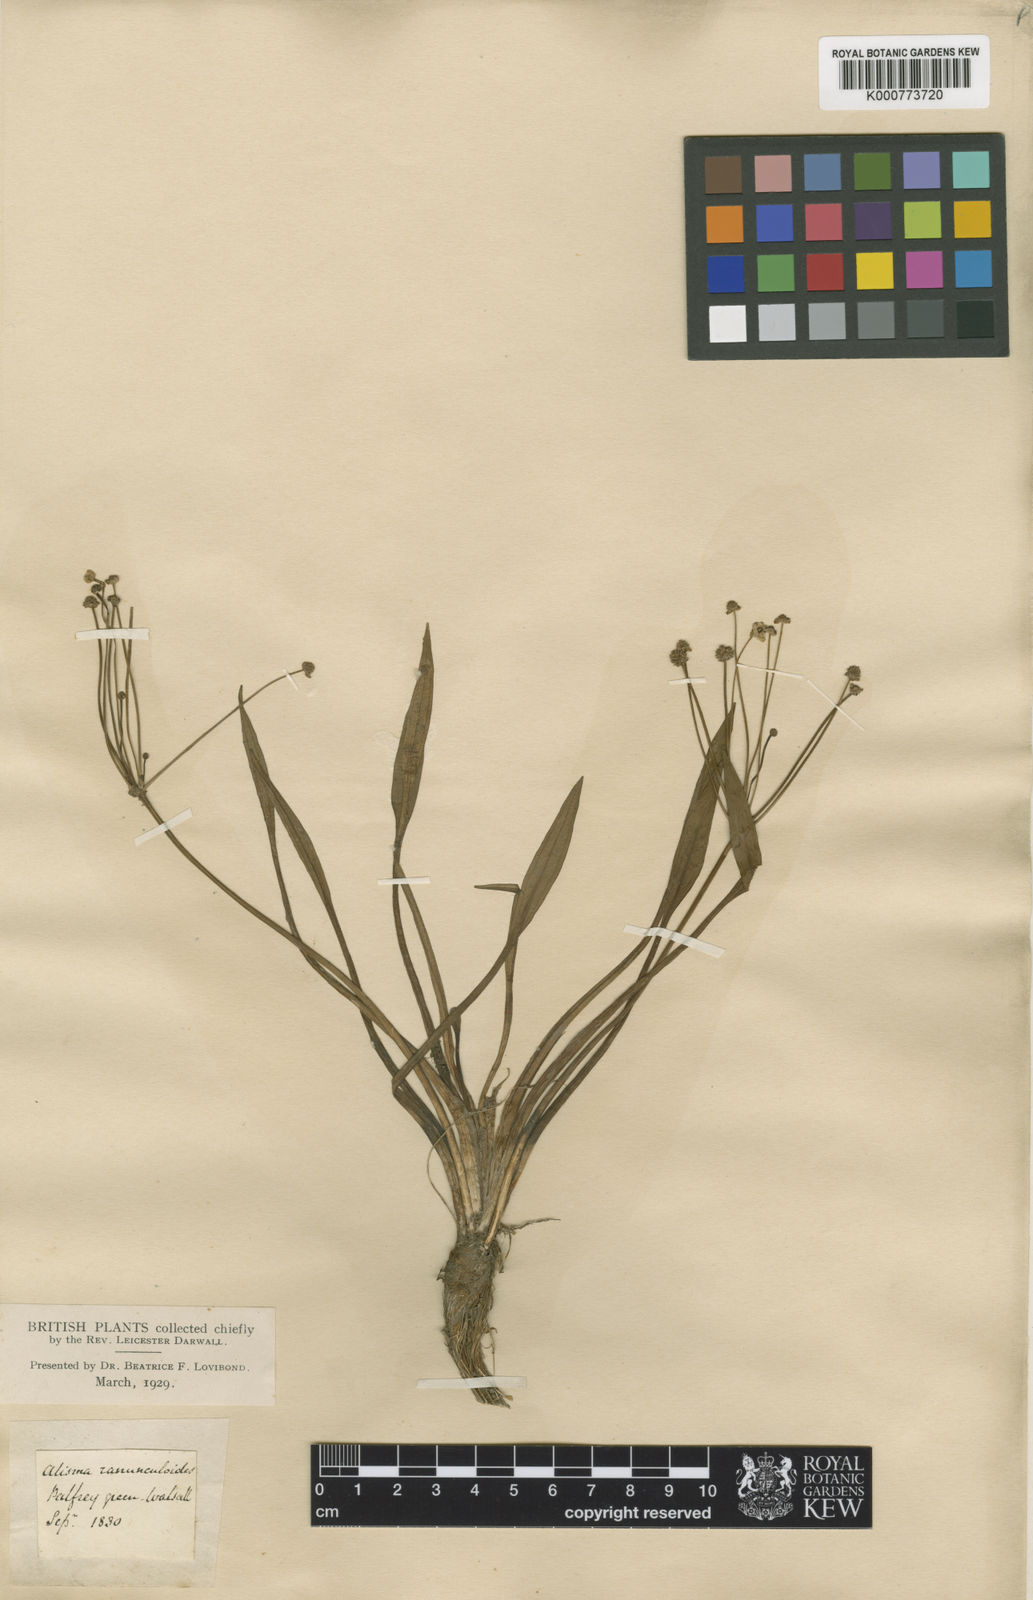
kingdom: Plantae
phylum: Tracheophyta
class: Liliopsida
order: Alismatales
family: Alismataceae
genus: Baldellia
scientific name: Baldellia ranunculoides
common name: Lesser water-plantain
